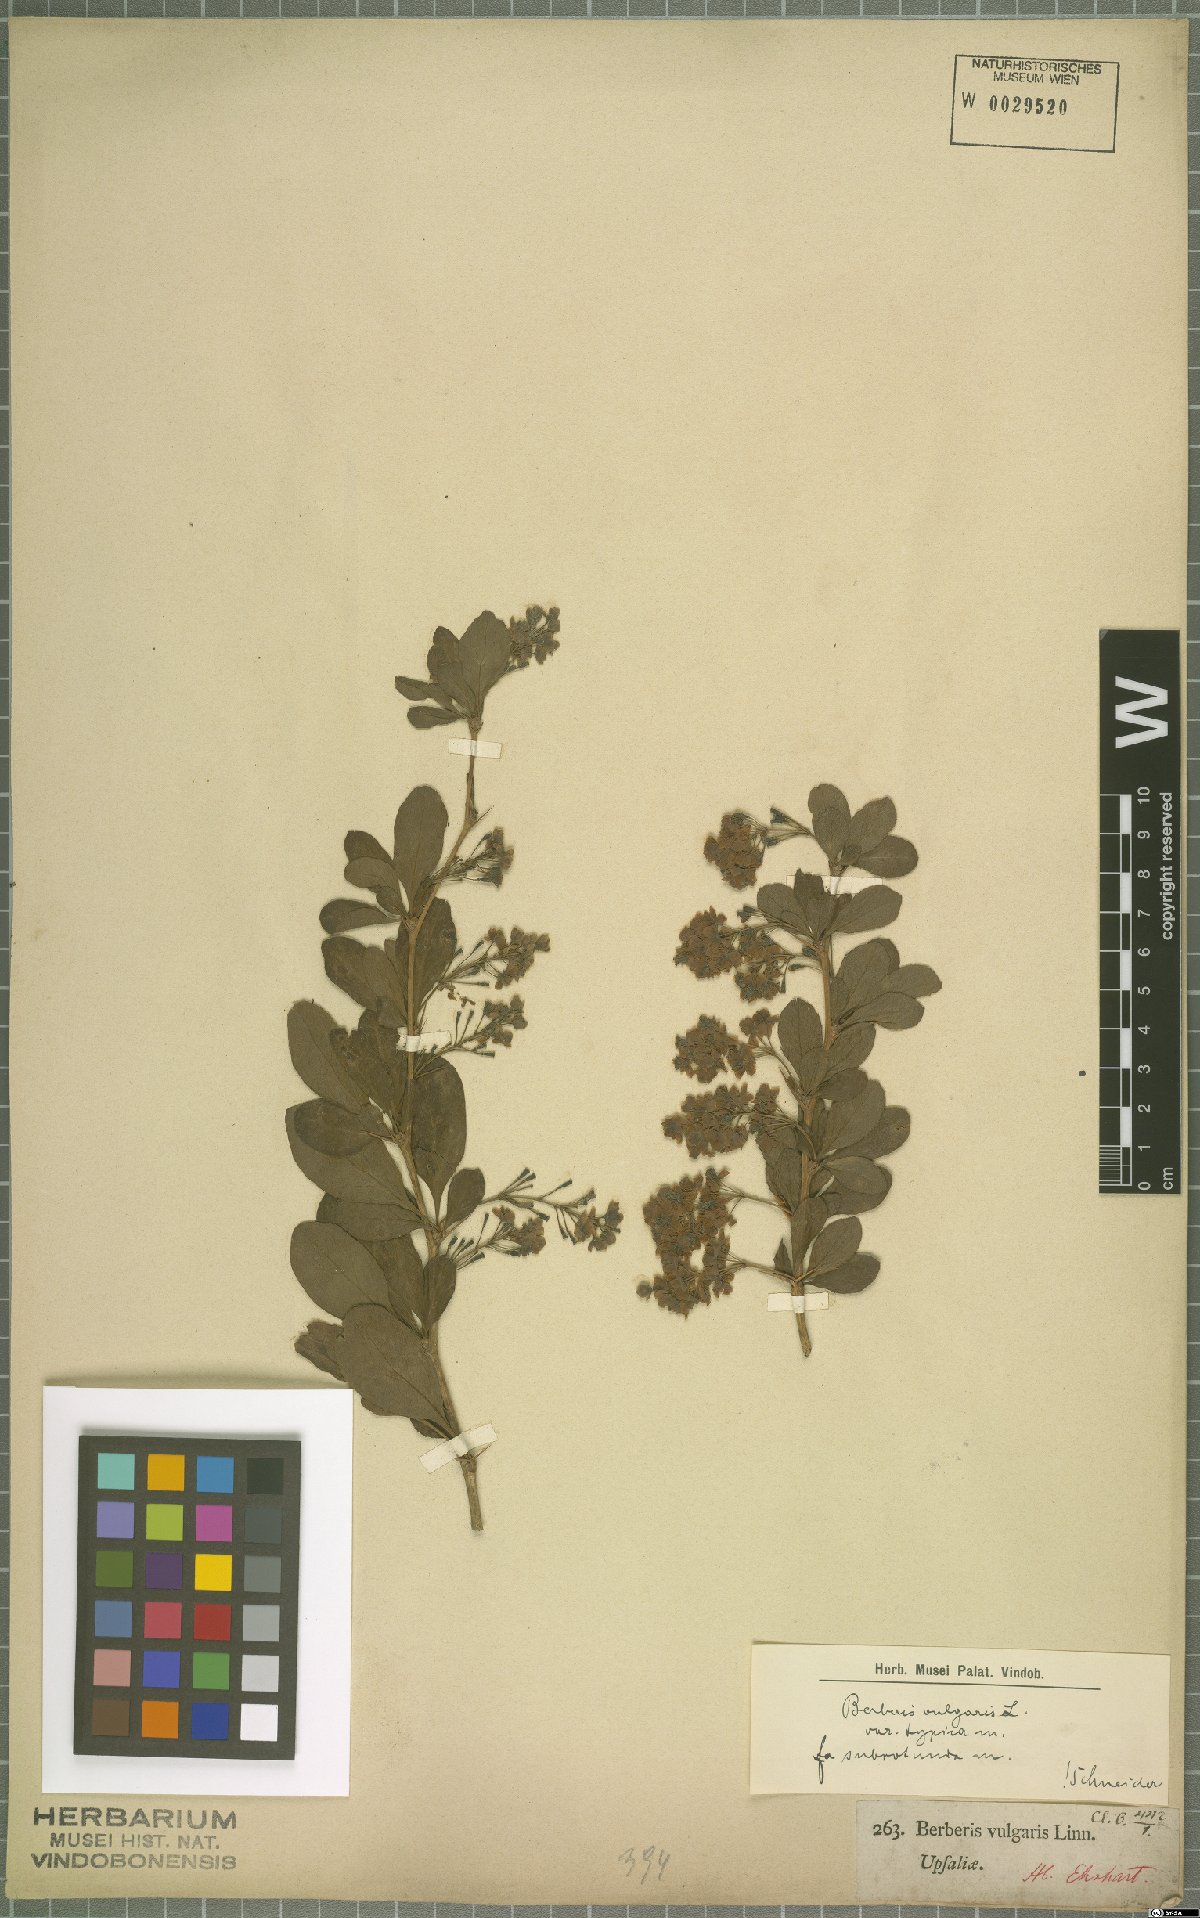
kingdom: Plantae
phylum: Tracheophyta
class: Magnoliopsida
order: Ranunculales
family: Berberidaceae
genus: Berberis
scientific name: Berberis vulgaris
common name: Barberry
